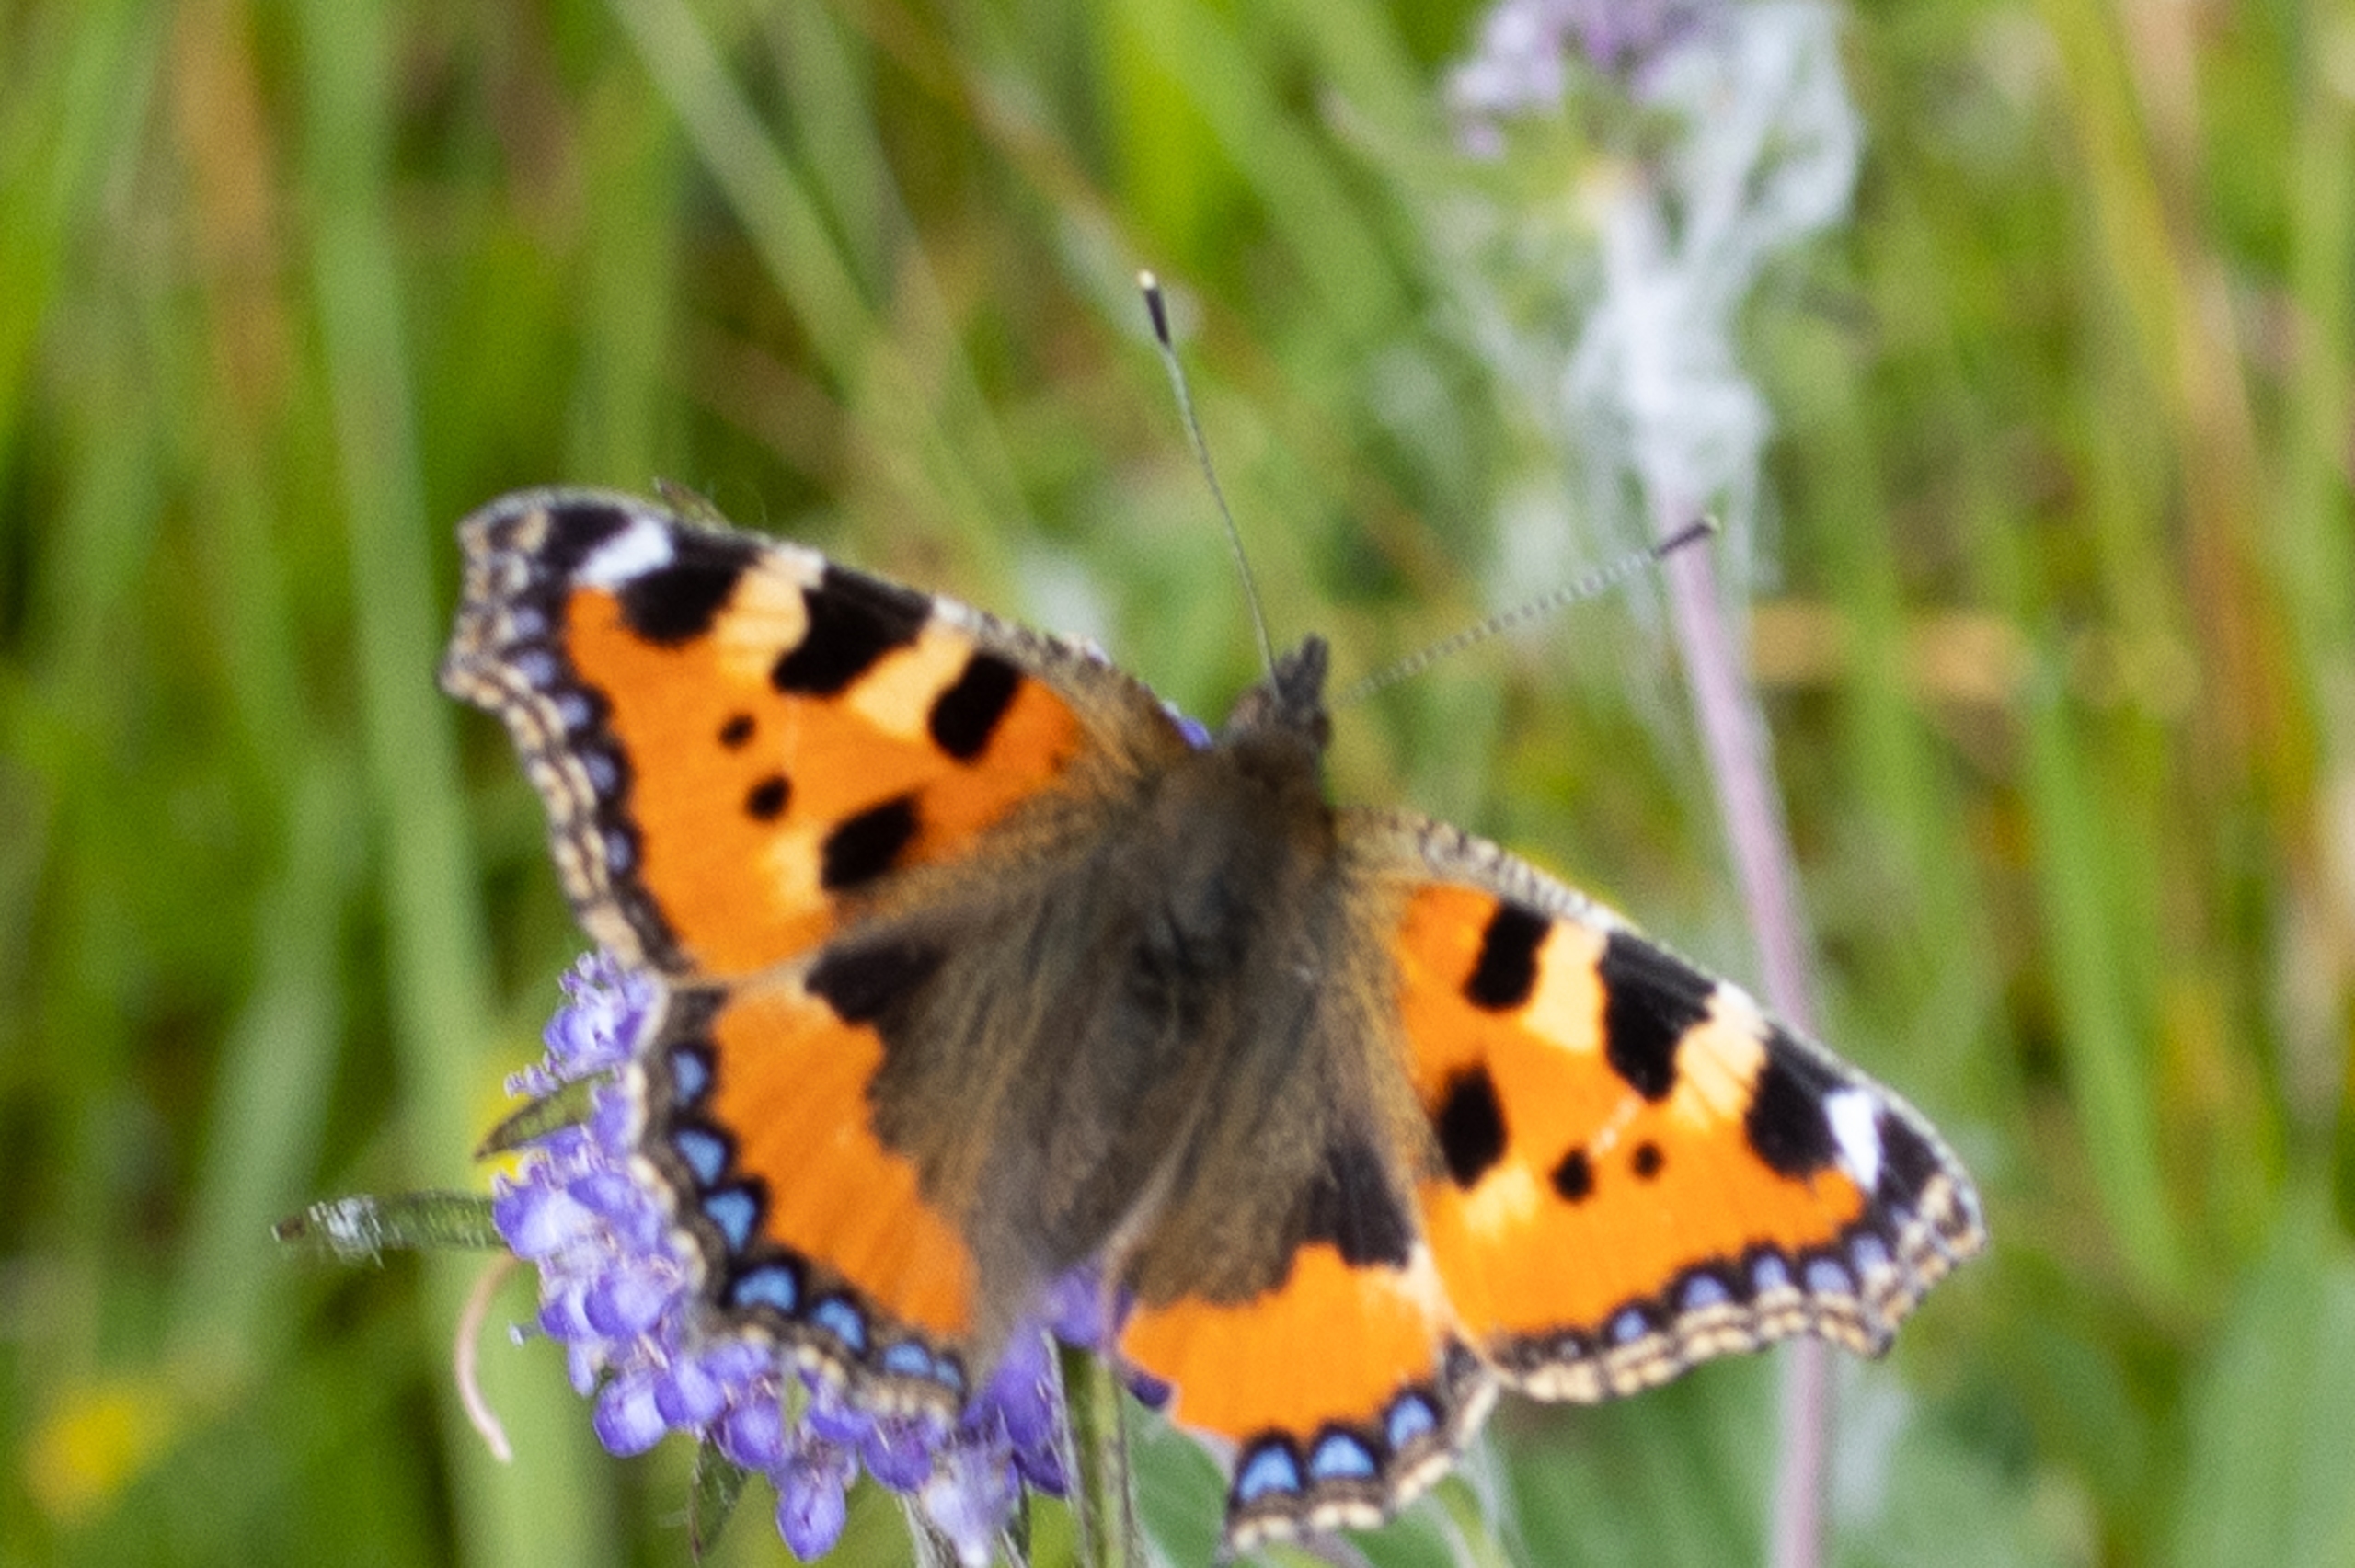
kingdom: Animalia
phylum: Arthropoda
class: Insecta
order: Lepidoptera
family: Nymphalidae
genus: Aglais
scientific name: Aglais urticae
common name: Nældens takvinge
